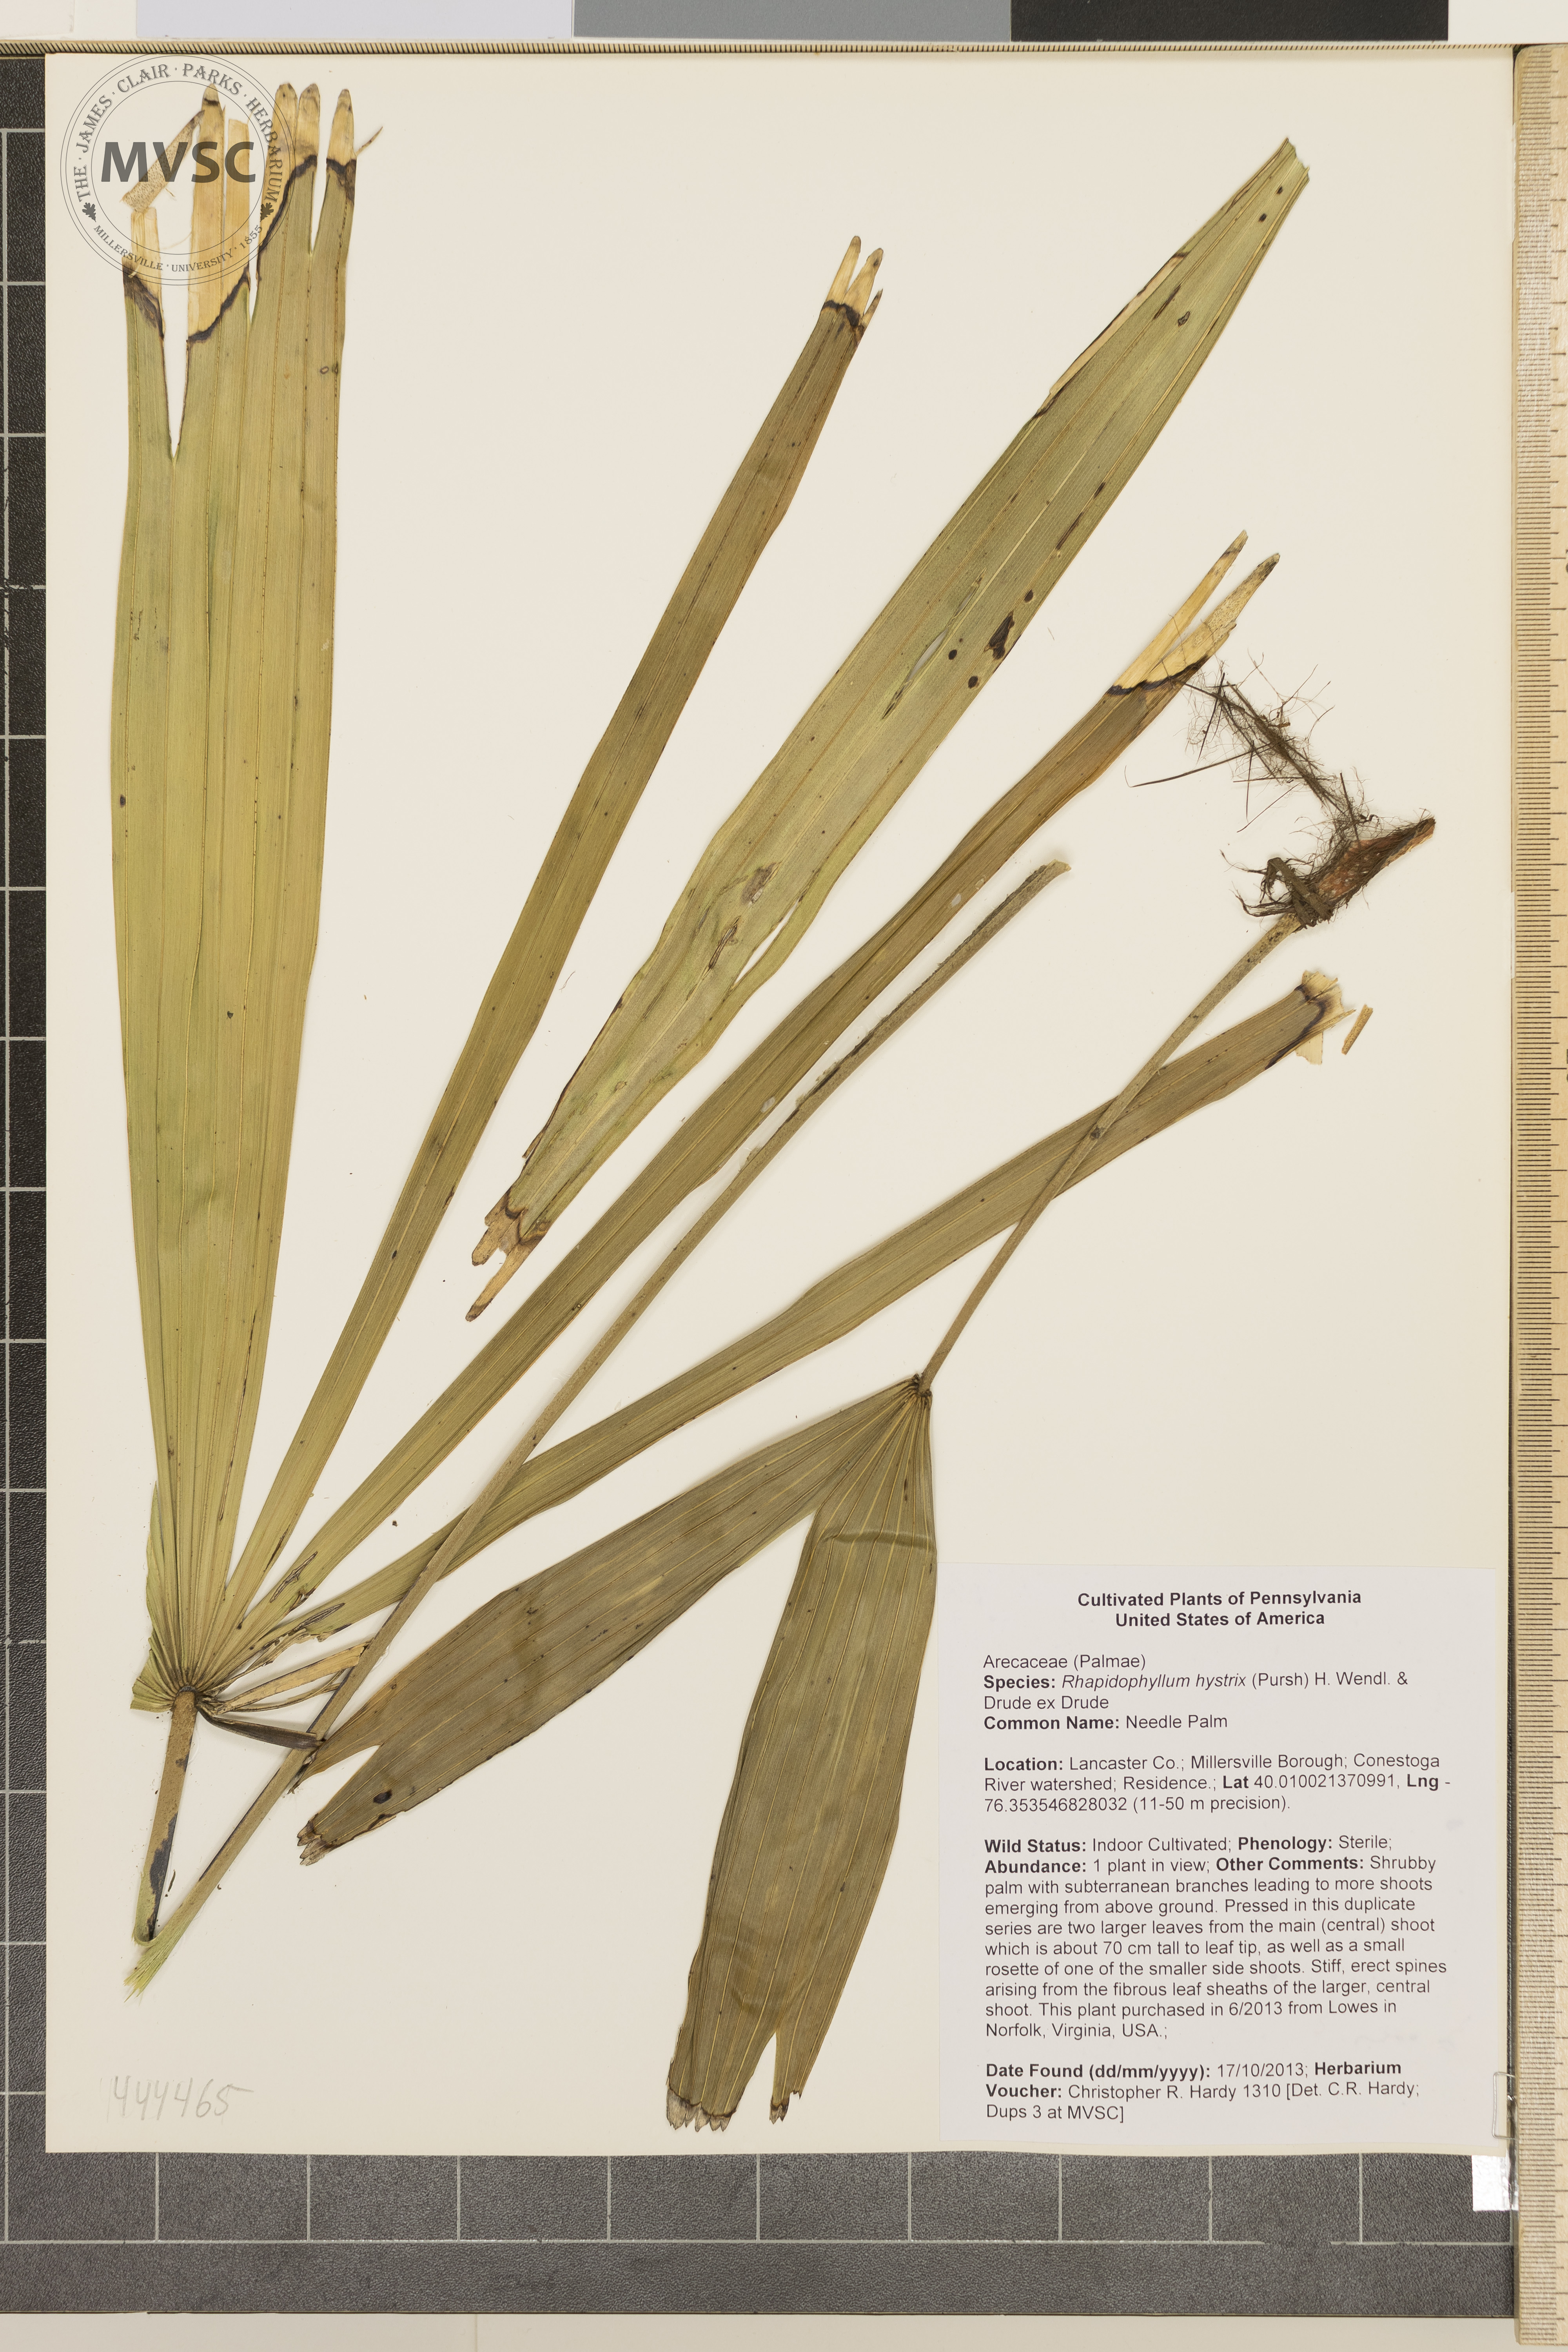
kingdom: Plantae
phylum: Tracheophyta
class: Liliopsida
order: Arecales
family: Arecaceae
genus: Rhapidophyllum
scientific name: Rhapidophyllum hystrix
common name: Needle Palm
